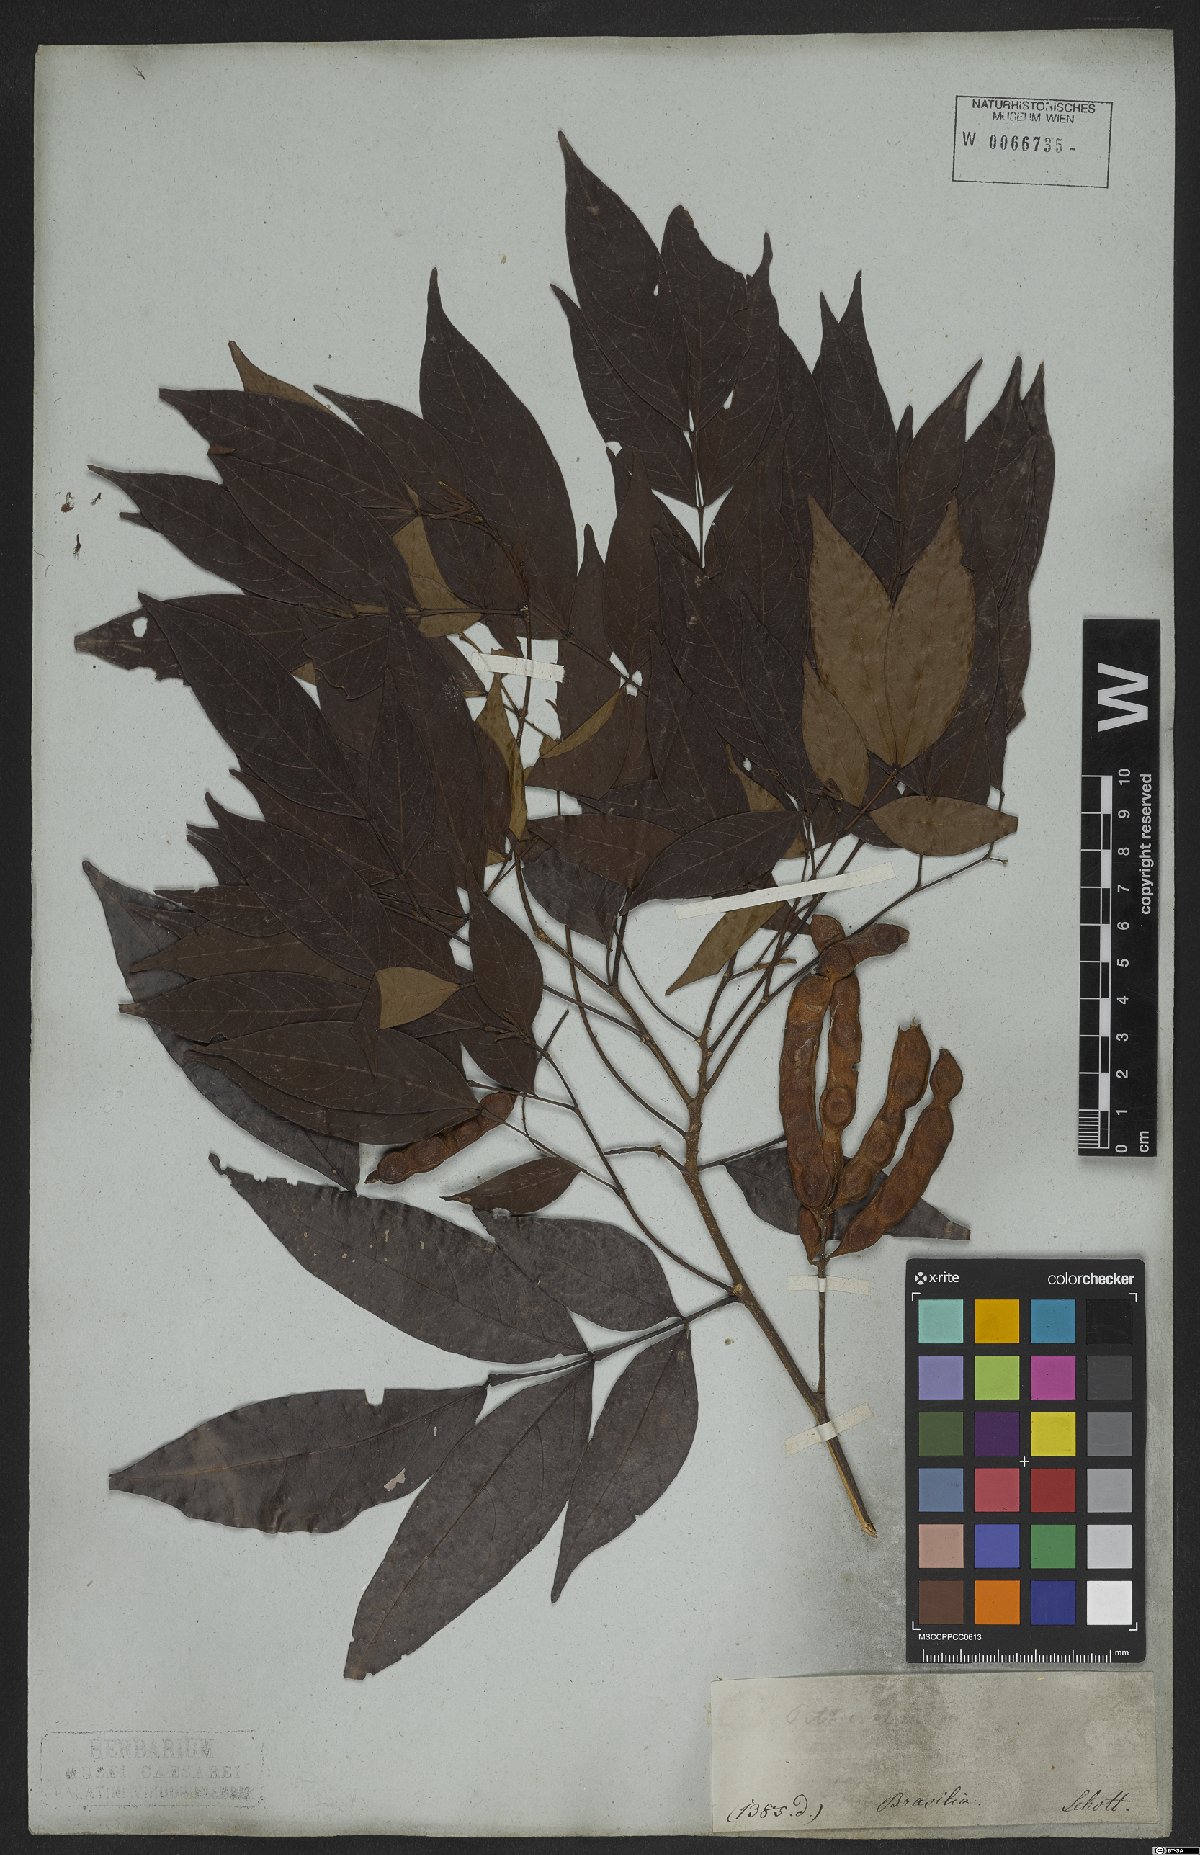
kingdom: Plantae
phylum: Tracheophyta
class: Magnoliopsida
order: Fabales
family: Fabaceae
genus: Inga
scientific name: Inga marginata
